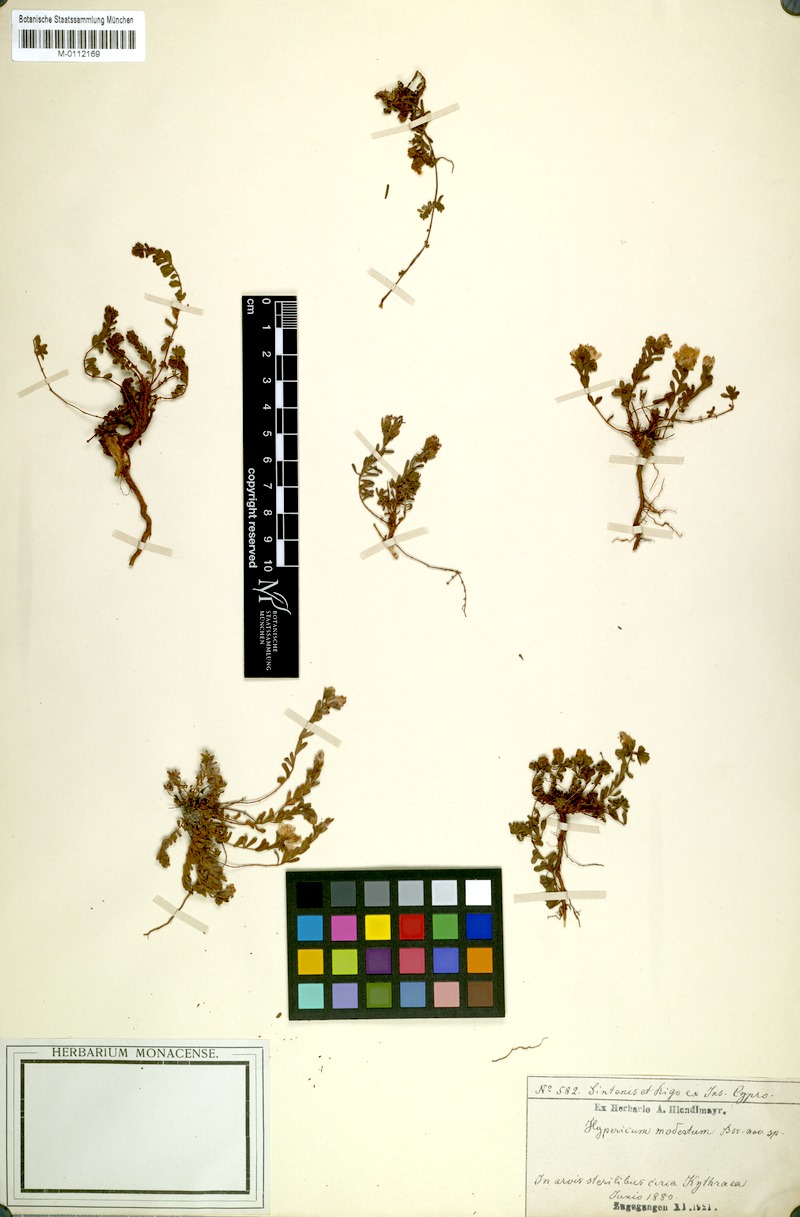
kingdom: Plantae
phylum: Tracheophyta
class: Magnoliopsida
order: Malpighiales
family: Hypericaceae
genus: Hypericum
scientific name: Hypericum repens
